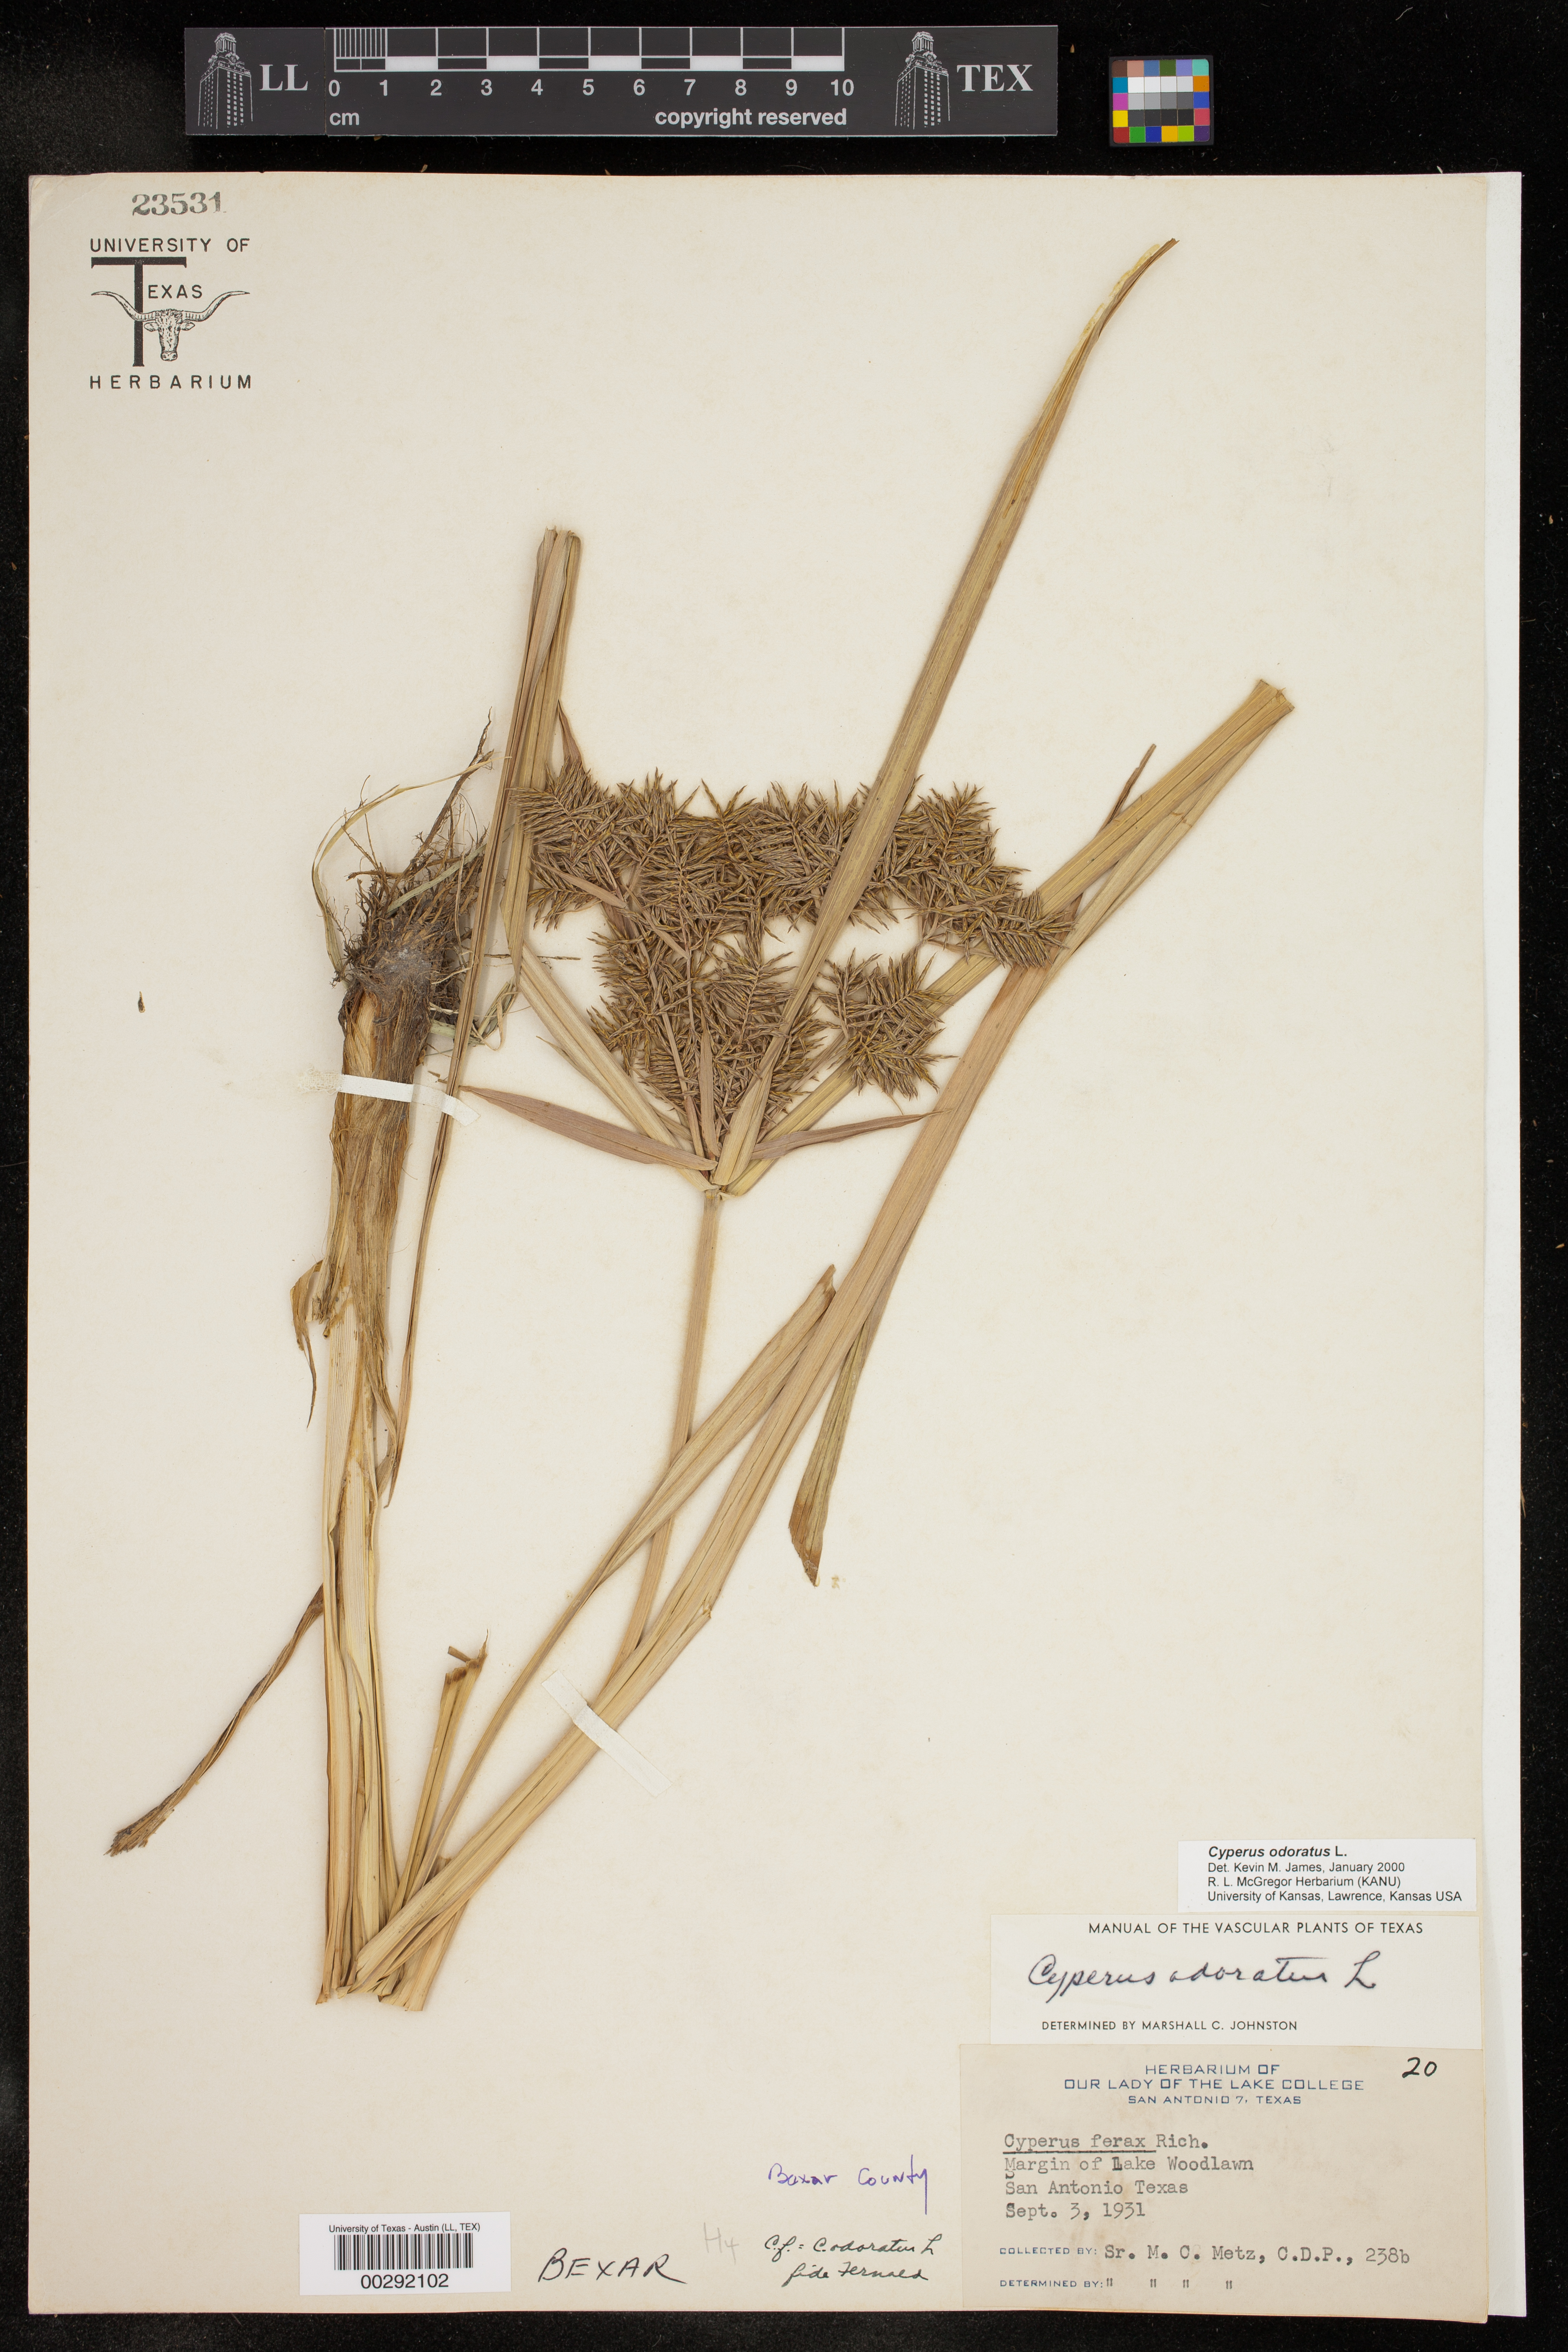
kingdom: Plantae
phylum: Tracheophyta
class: Liliopsida
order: Poales
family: Cyperaceae
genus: Cyperus
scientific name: Cyperus odoratus
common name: Fragrant flatsedge
